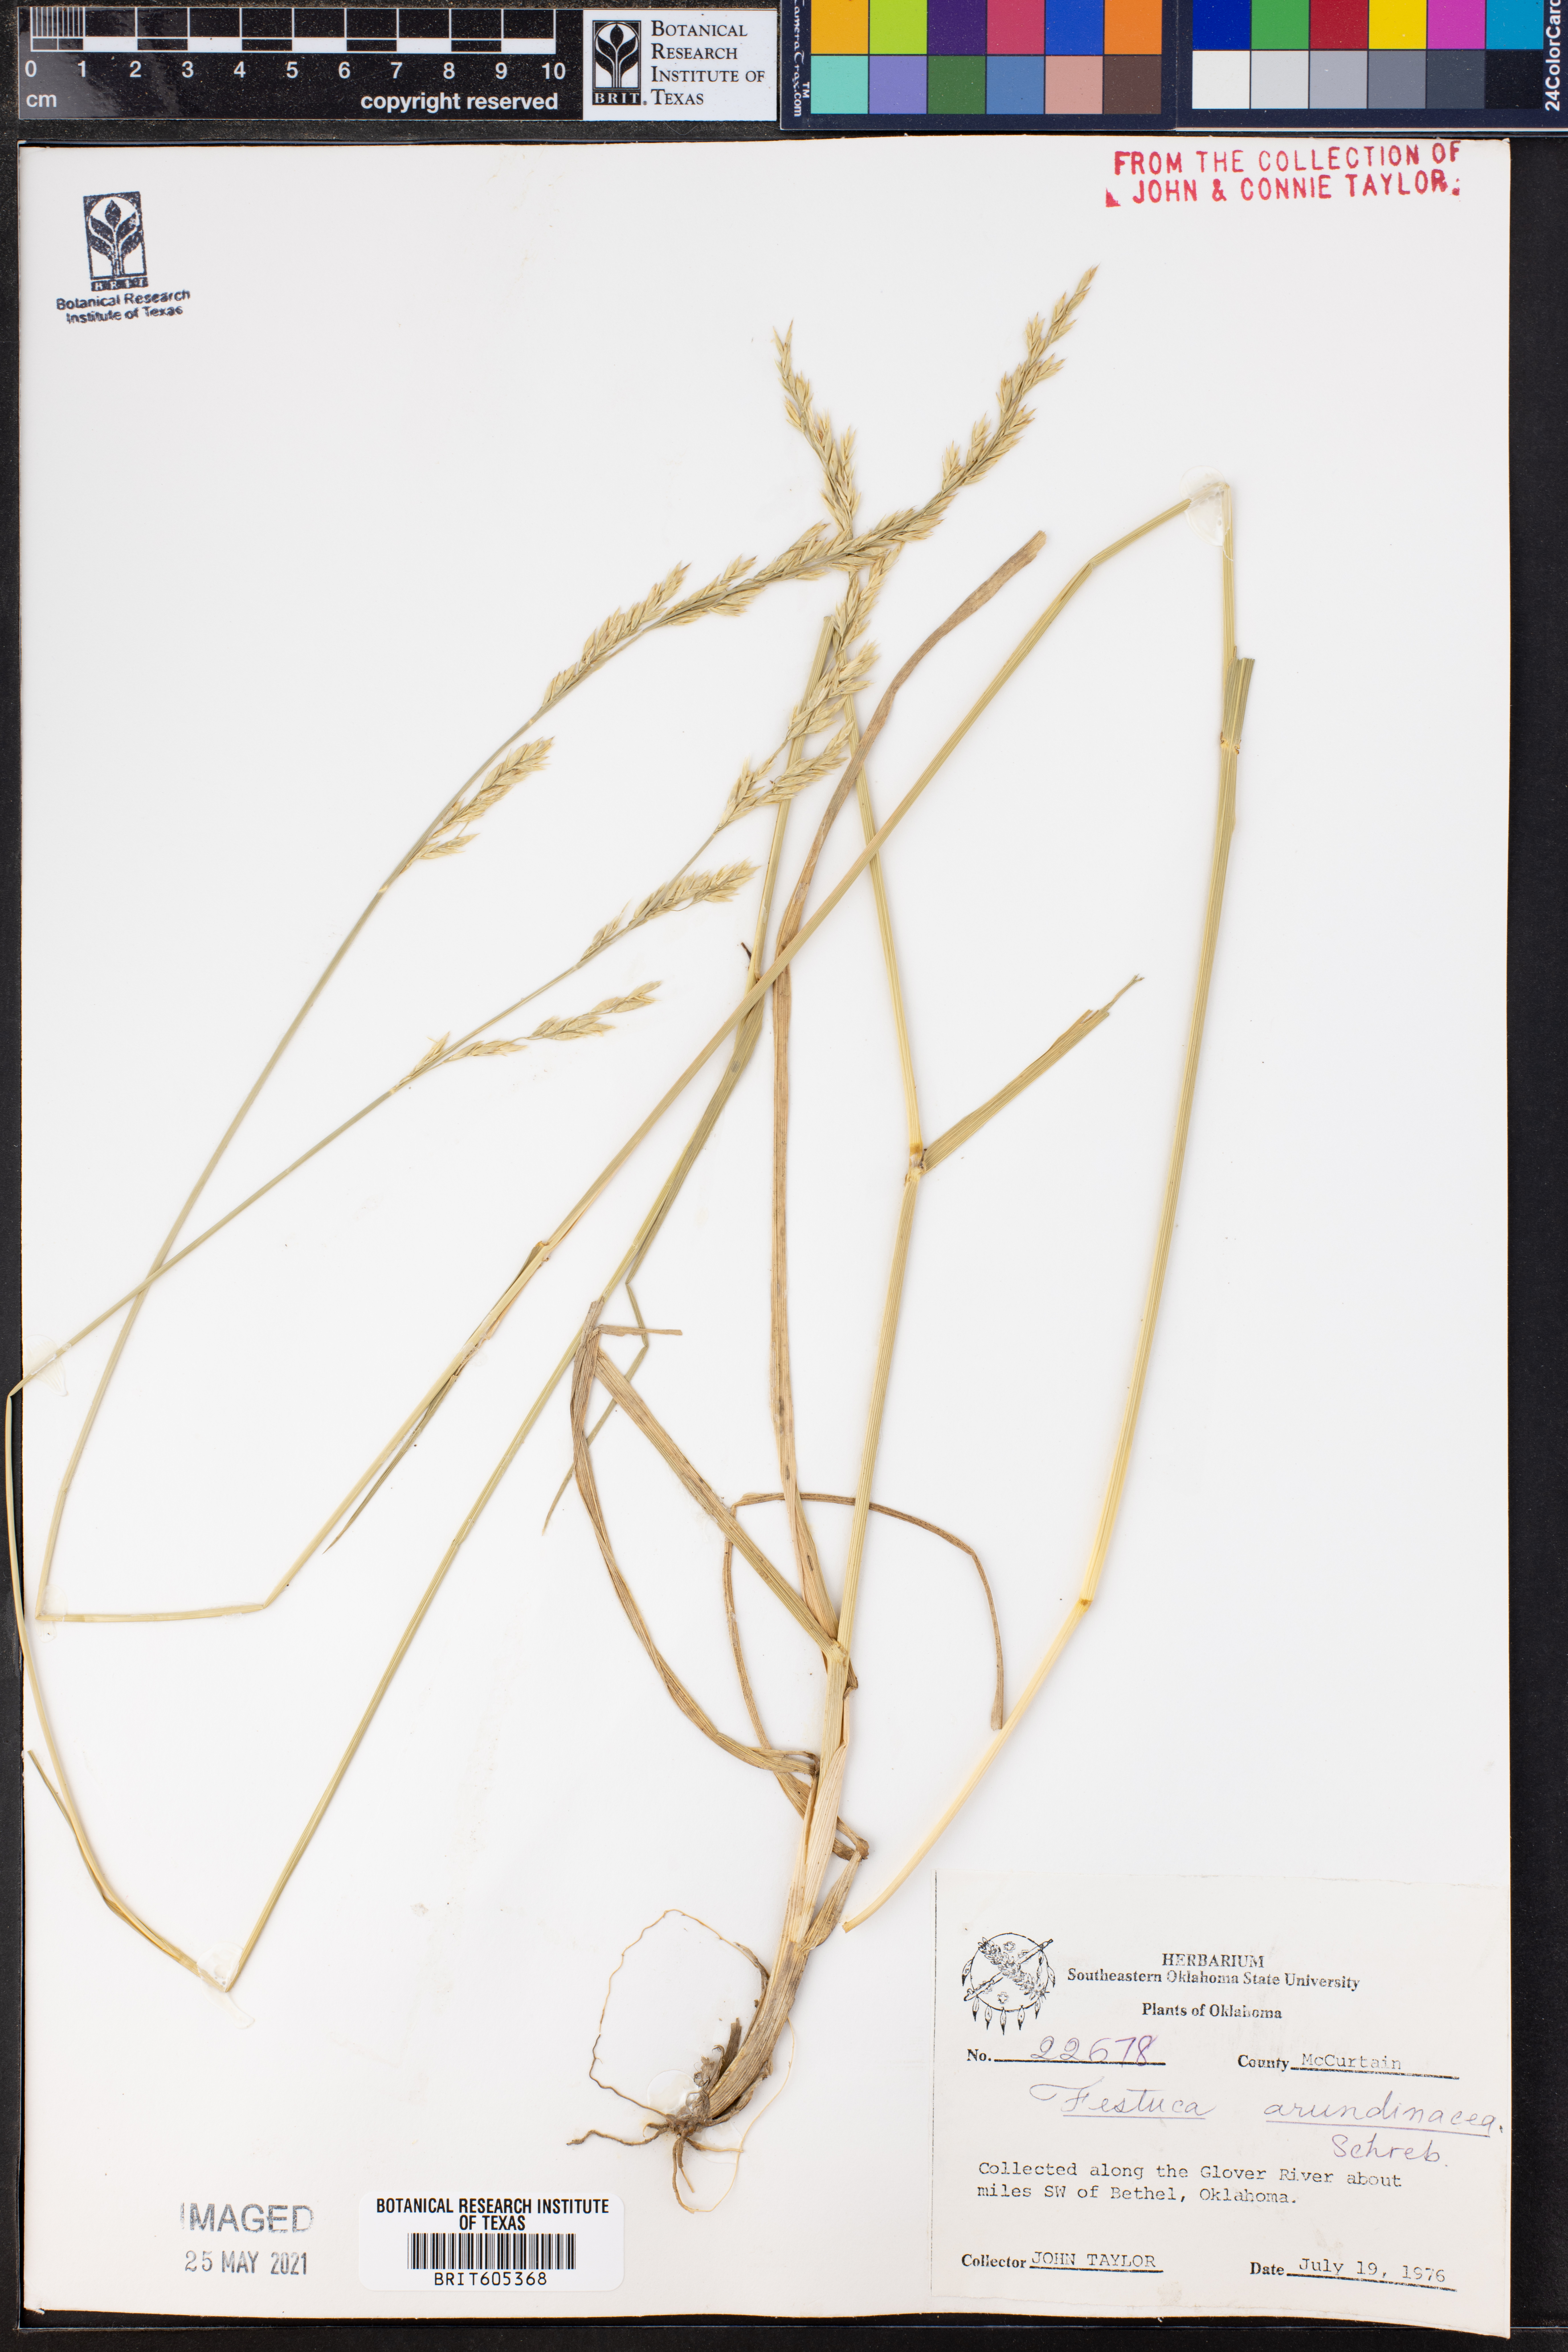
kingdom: Plantae
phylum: Tracheophyta
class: Liliopsida
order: Poales
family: Poaceae
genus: Lolium
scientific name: Lolium arundinaceum
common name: Reed fescue
